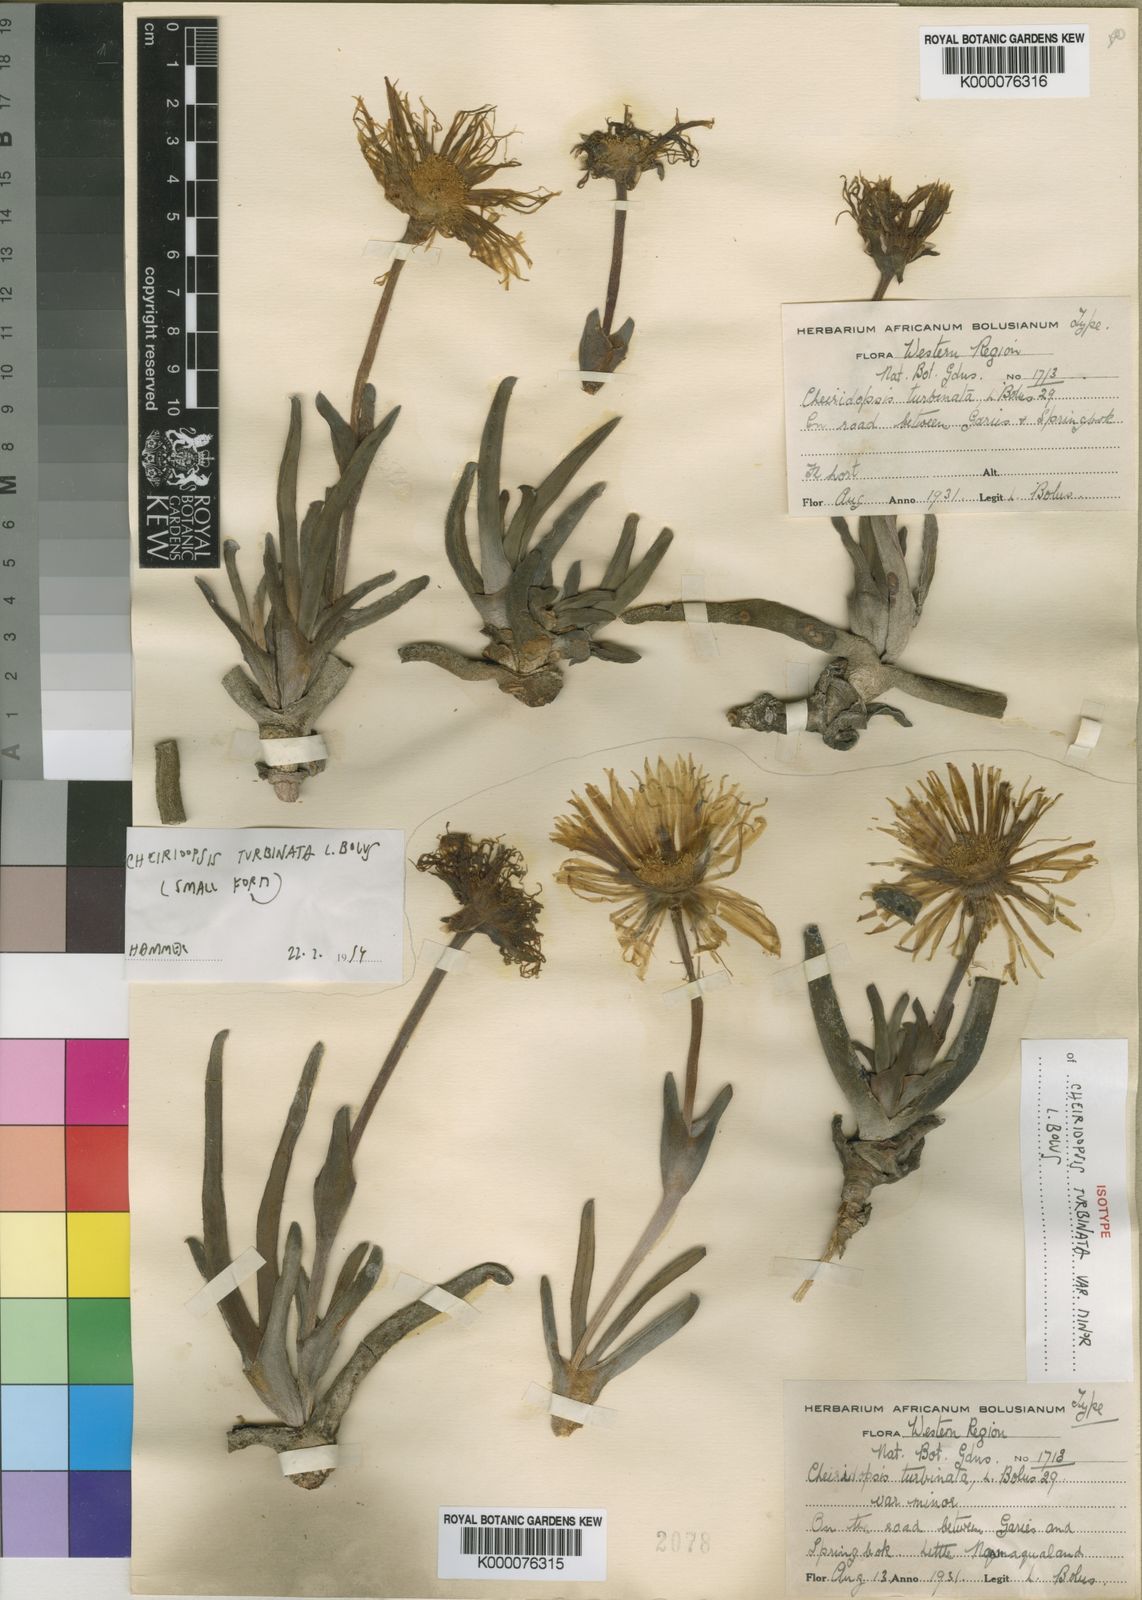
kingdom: Plantae
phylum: Tracheophyta
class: Magnoliopsida
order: Caryophyllales
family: Aizoaceae
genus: Cheiridopsis
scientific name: Cheiridopsis turbinata
